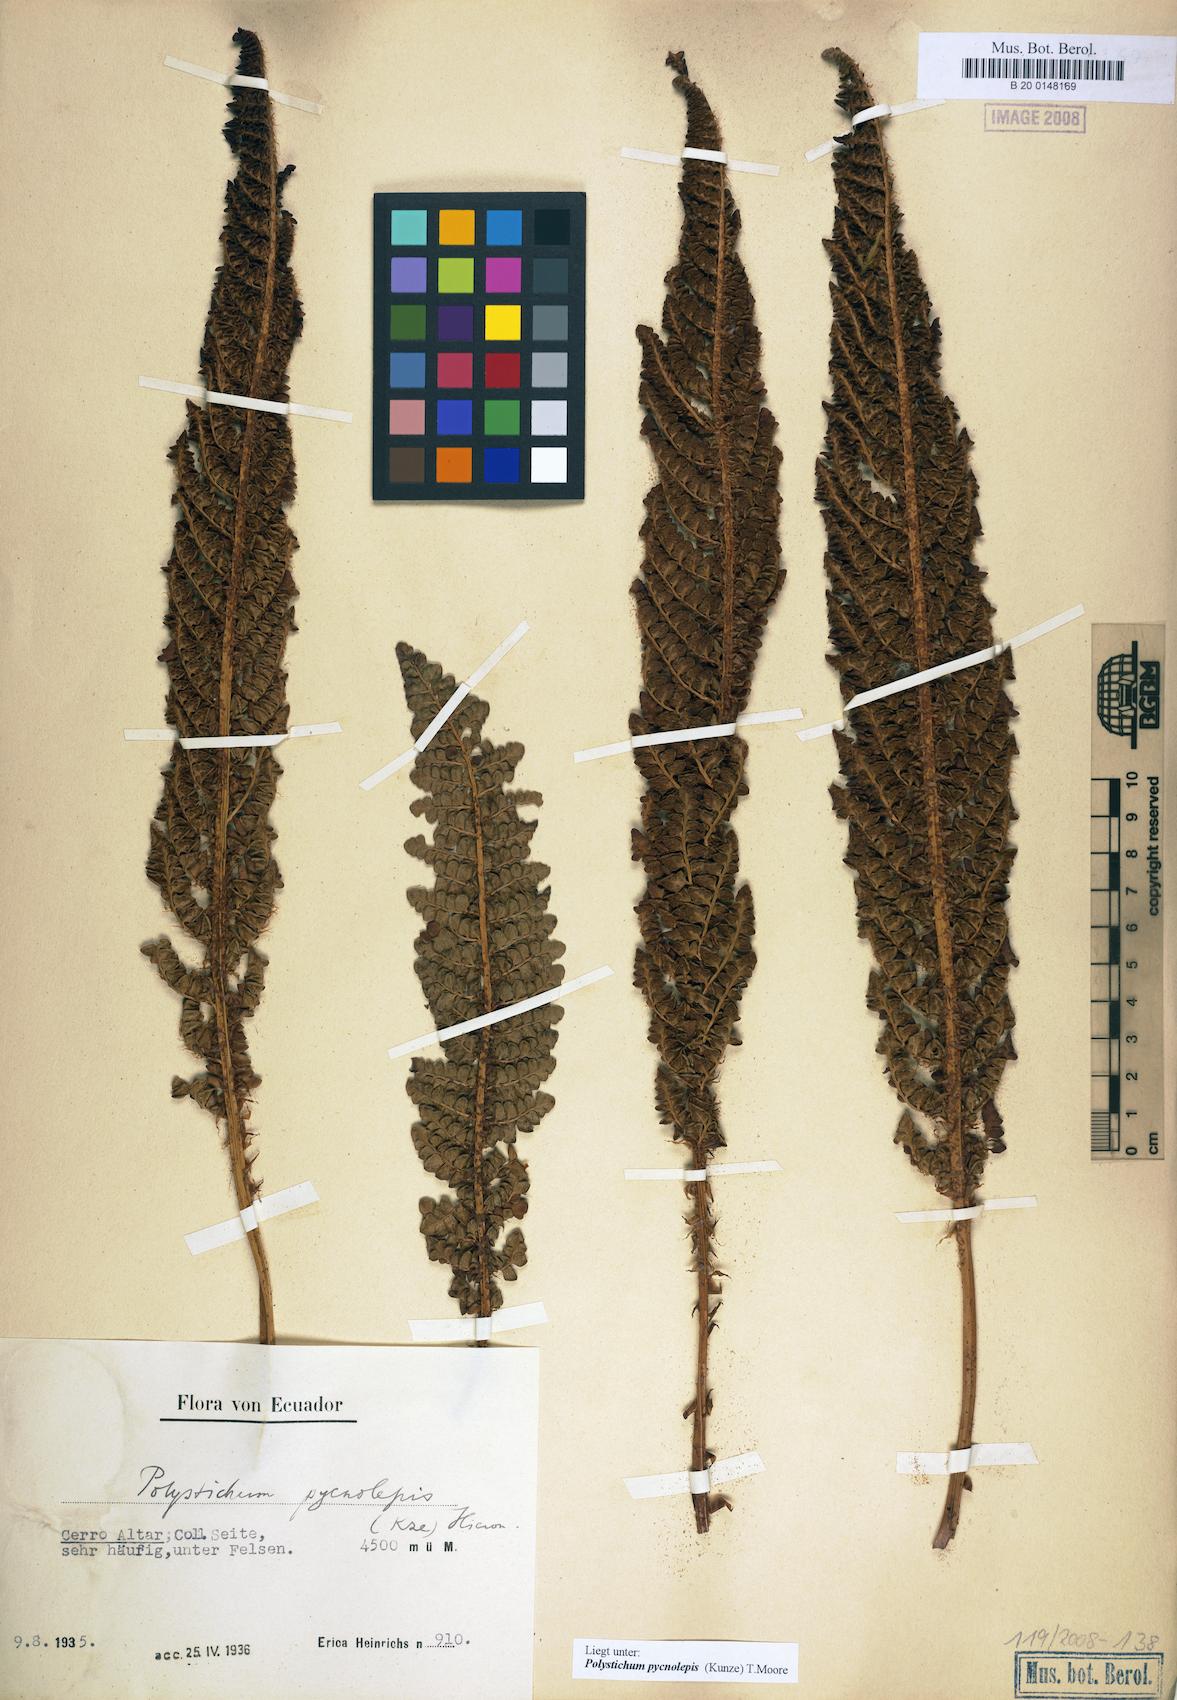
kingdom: Plantae
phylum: Tracheophyta
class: Polypodiopsida
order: Polypodiales
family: Dryopteridaceae
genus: Polystichum
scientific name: Polystichum pycnolepis
